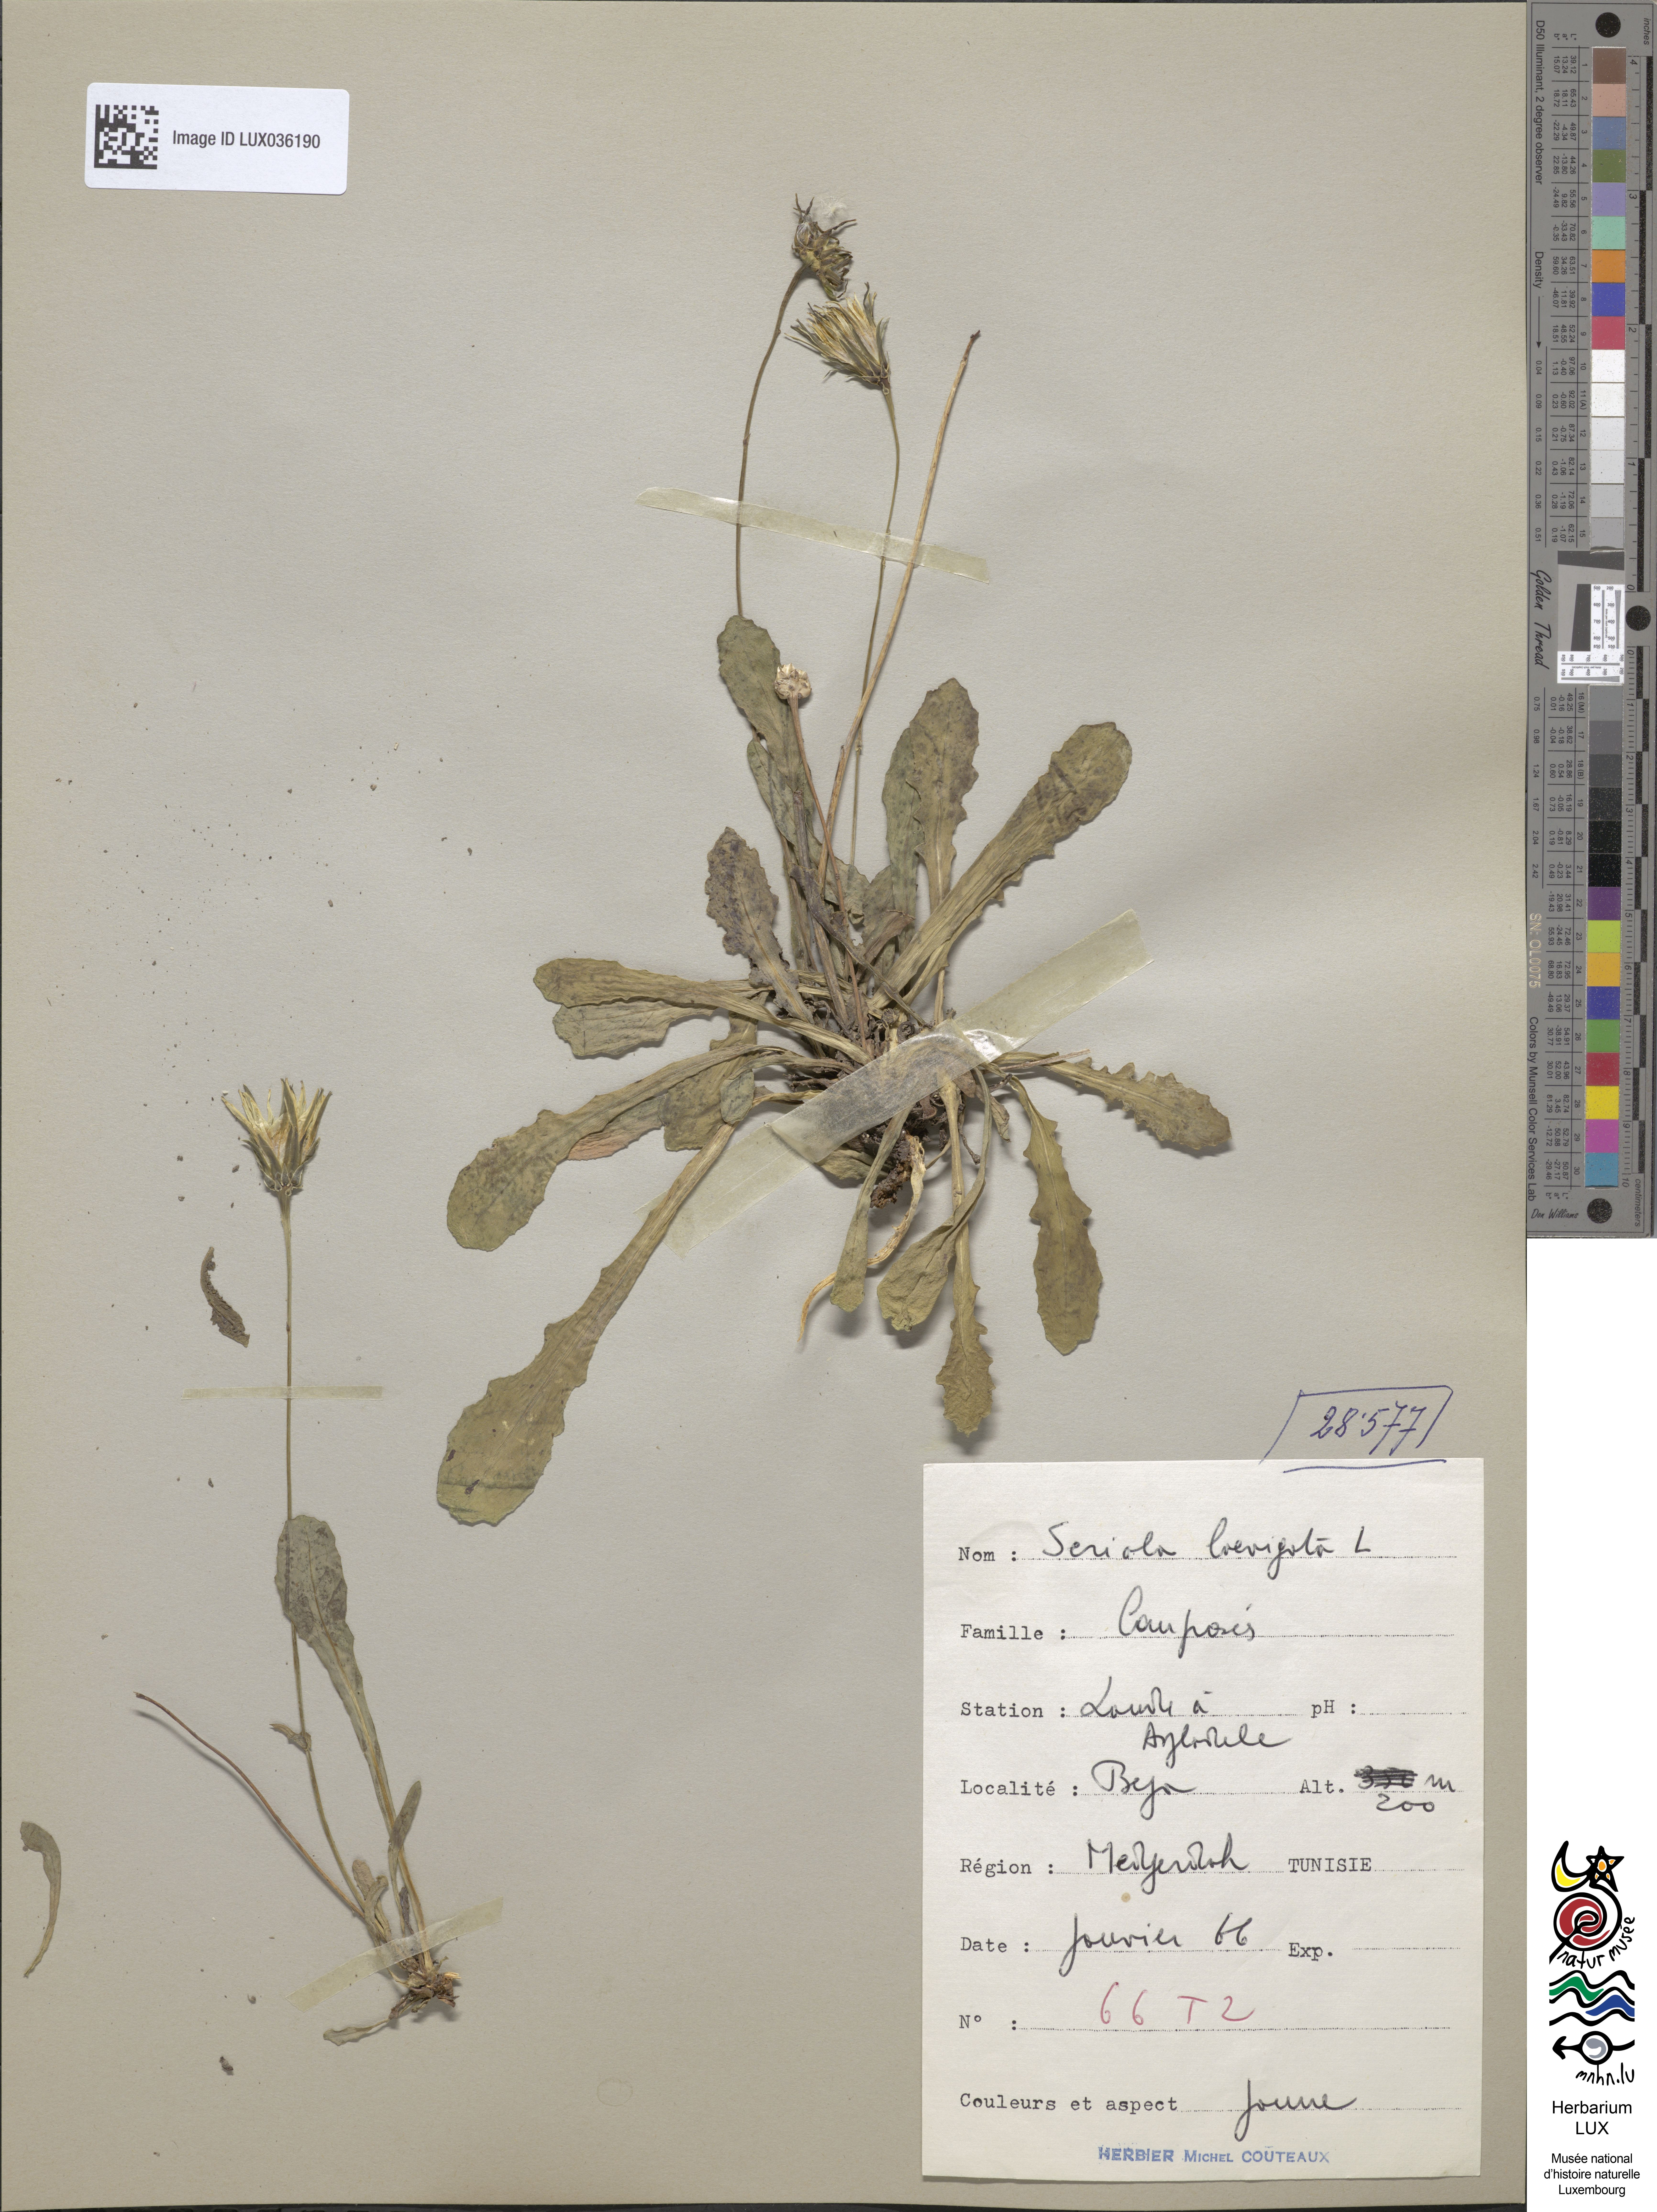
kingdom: Plantae
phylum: Tracheophyta
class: Magnoliopsida
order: Asterales
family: Asteraceae
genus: Hypochoeris
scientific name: Hypochoeris
